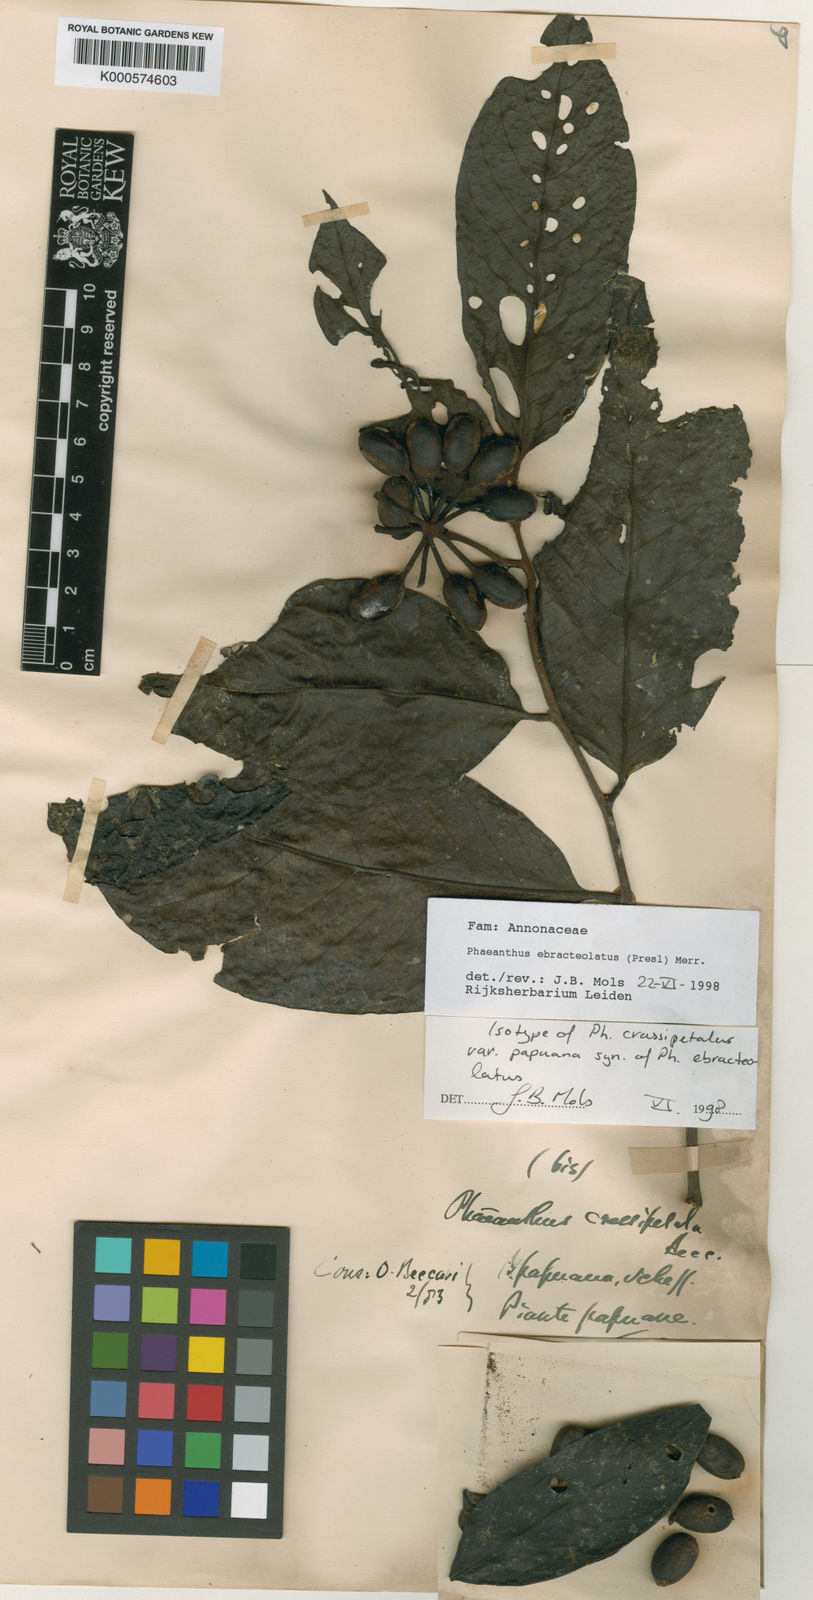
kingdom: Plantae
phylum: Tracheophyta
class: Magnoliopsida
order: Magnoliales
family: Annonaceae
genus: Phaeanthus
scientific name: Phaeanthus ophthalmicus
